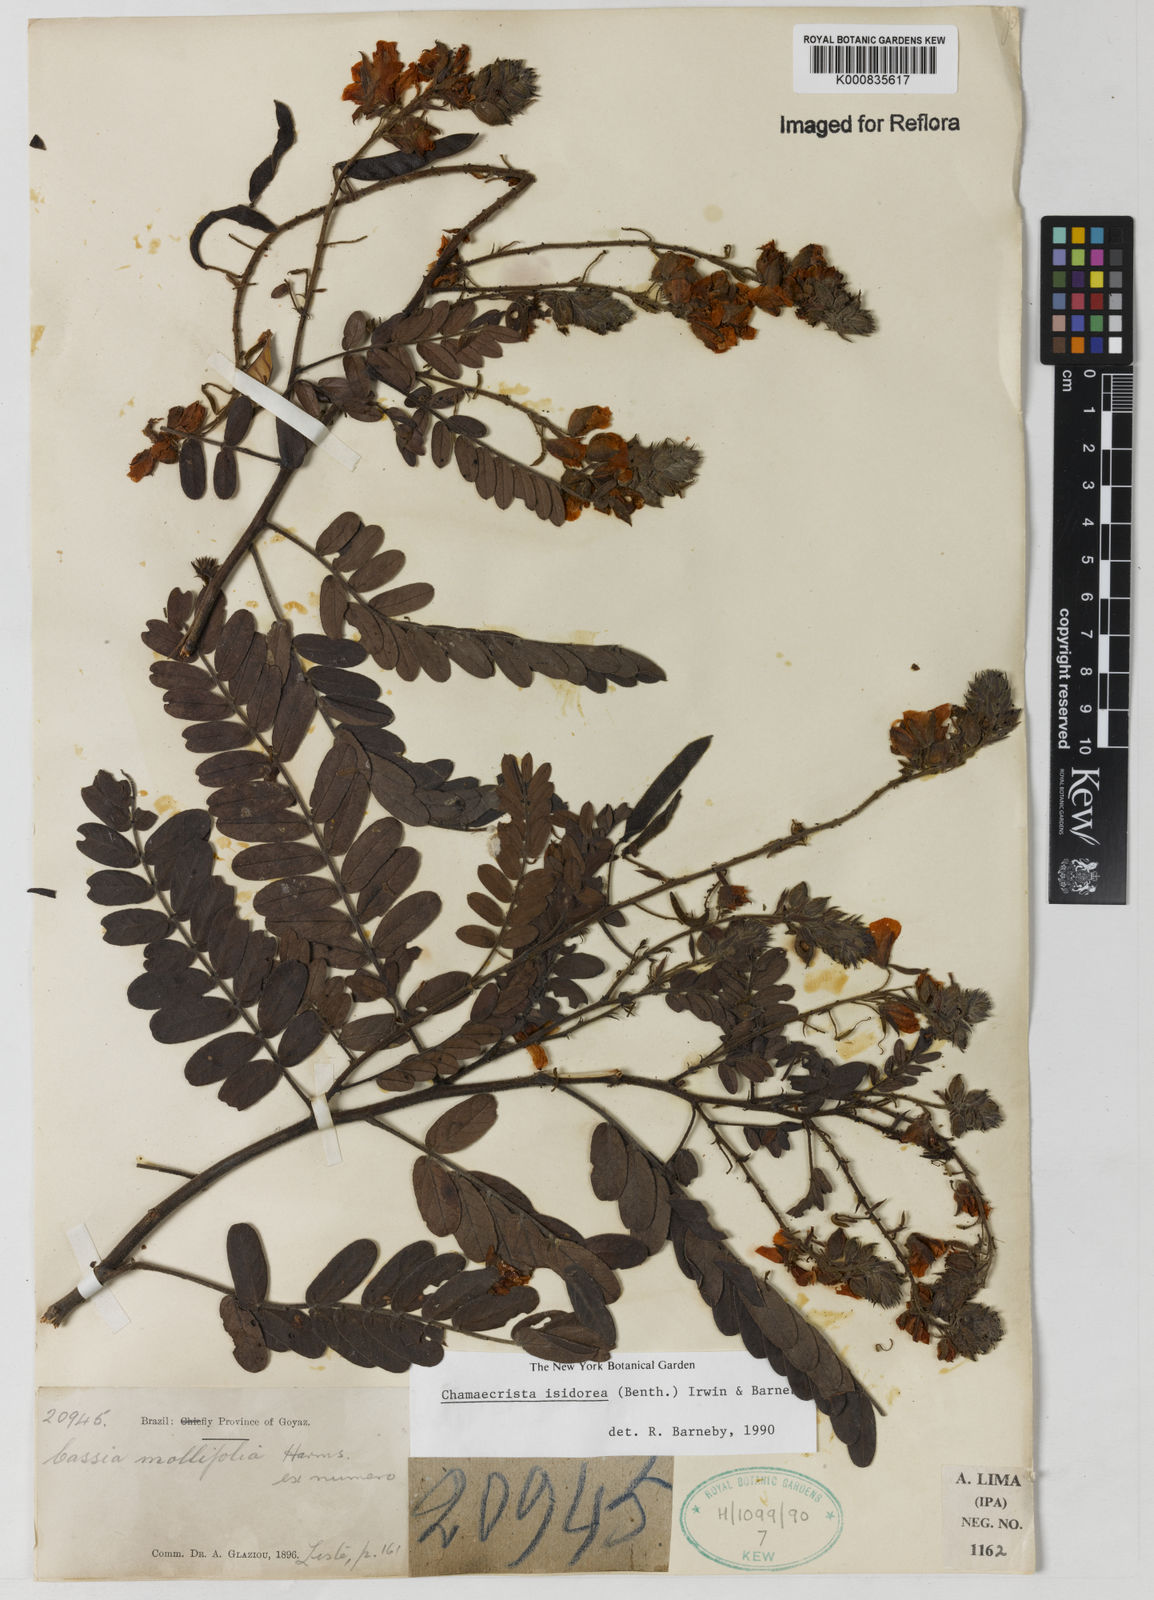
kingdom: Plantae
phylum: Tracheophyta
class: Magnoliopsida
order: Fabales
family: Fabaceae
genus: Chamaecrista
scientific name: Chamaecrista isidorea
